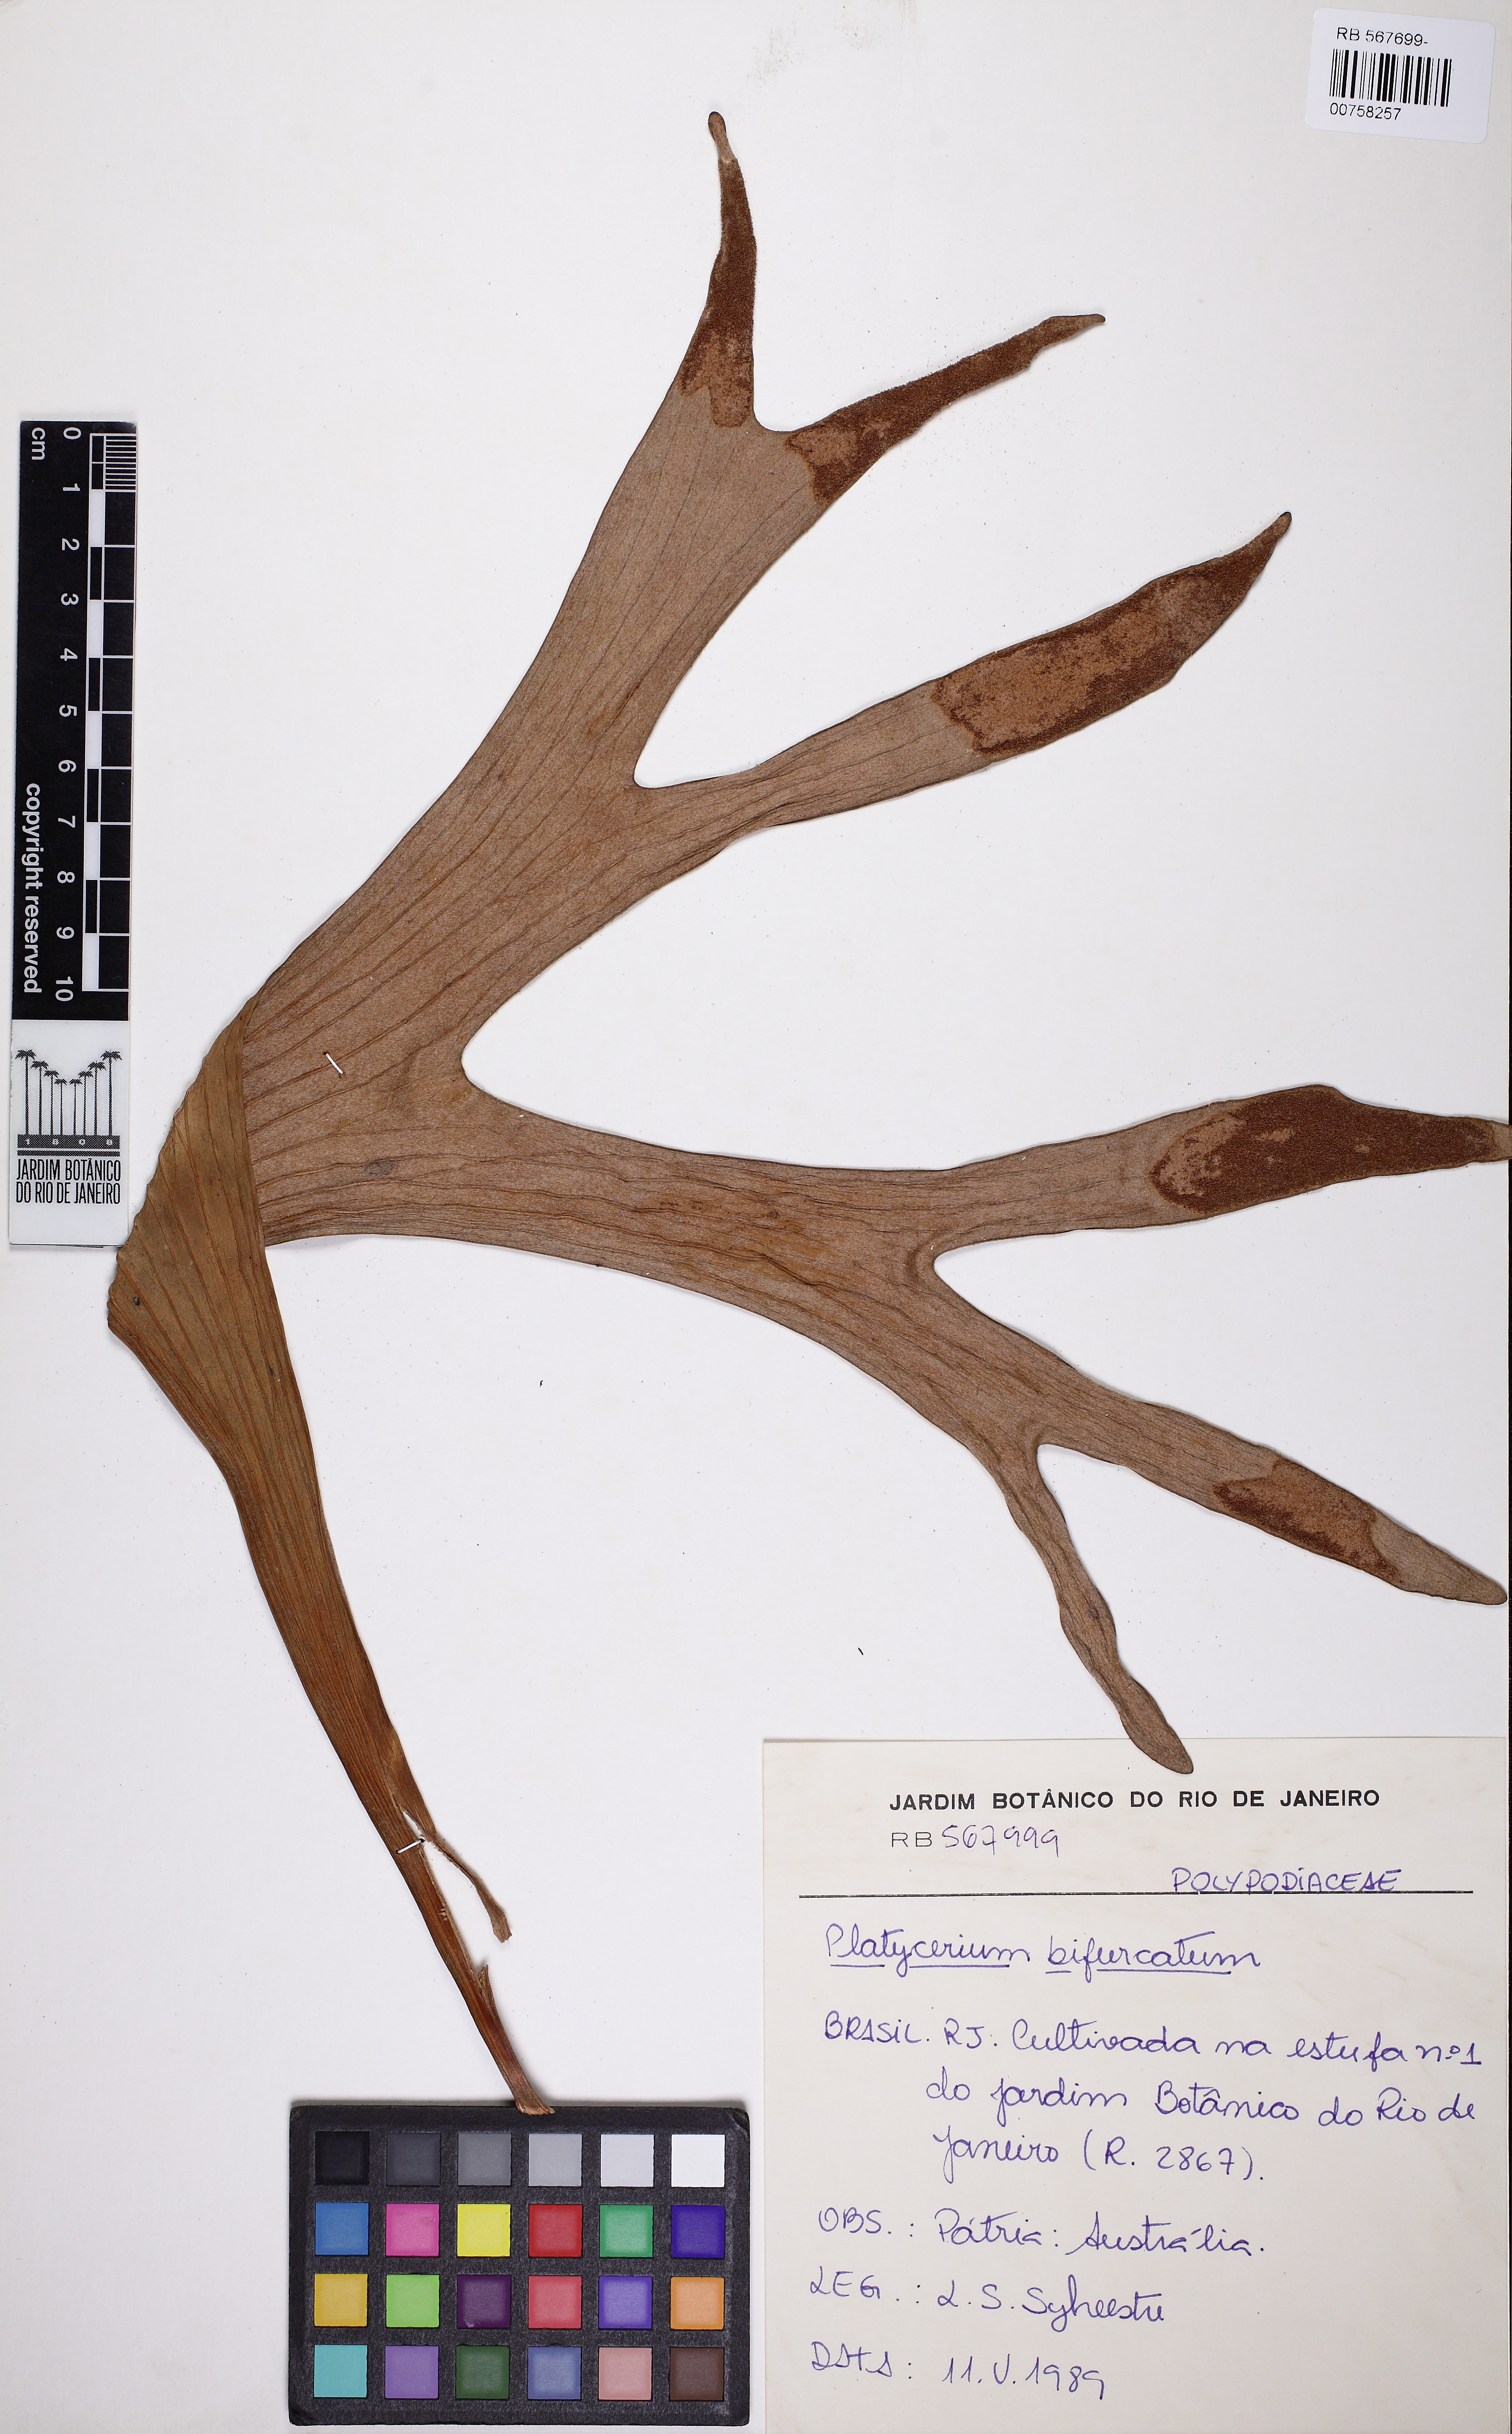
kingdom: Plantae
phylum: Tracheophyta
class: Polypodiopsida
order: Polypodiales
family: Polypodiaceae
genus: Platycerium
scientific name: Platycerium bifurcatum
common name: Elkhorn fern
